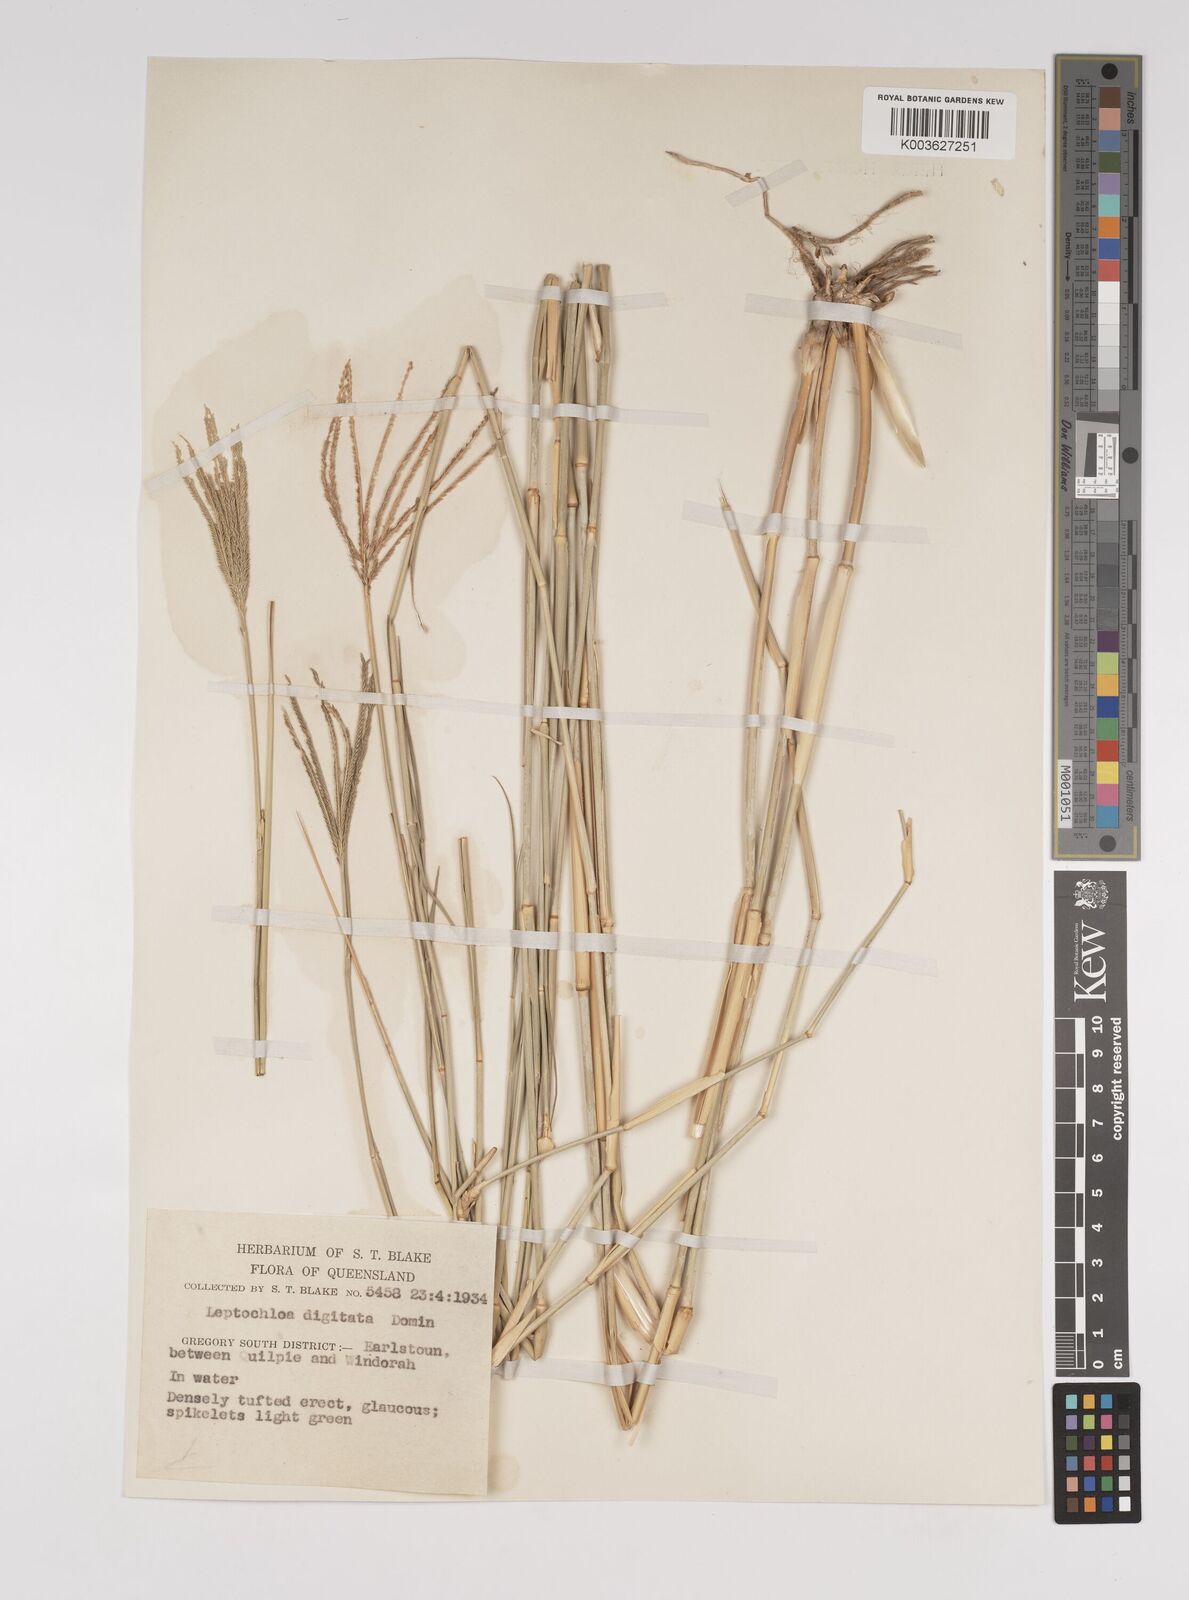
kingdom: Plantae
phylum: Tracheophyta
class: Liliopsida
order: Poales
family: Poaceae
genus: Leptochloa
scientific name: Leptochloa digitata
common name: Finger sprangletop
